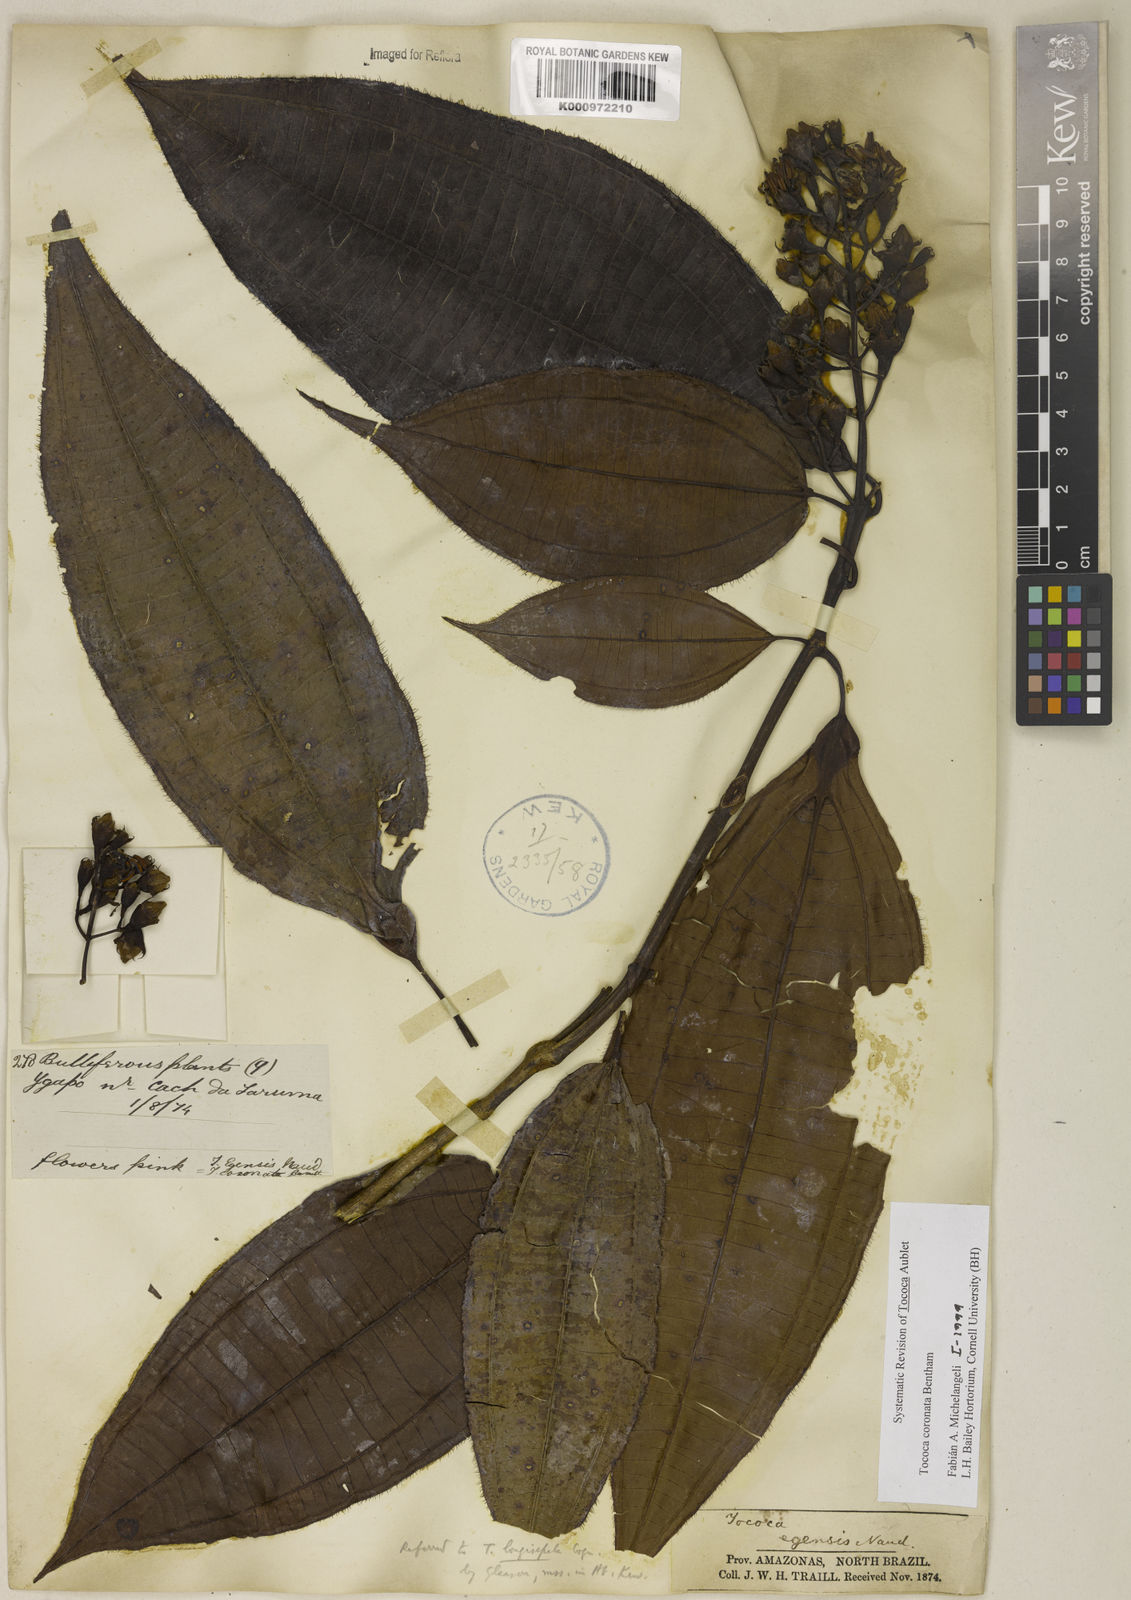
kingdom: Plantae
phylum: Tracheophyta
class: Magnoliopsida
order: Myrtales
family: Melastomataceae
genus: Miconia
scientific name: Miconia tococoronata
